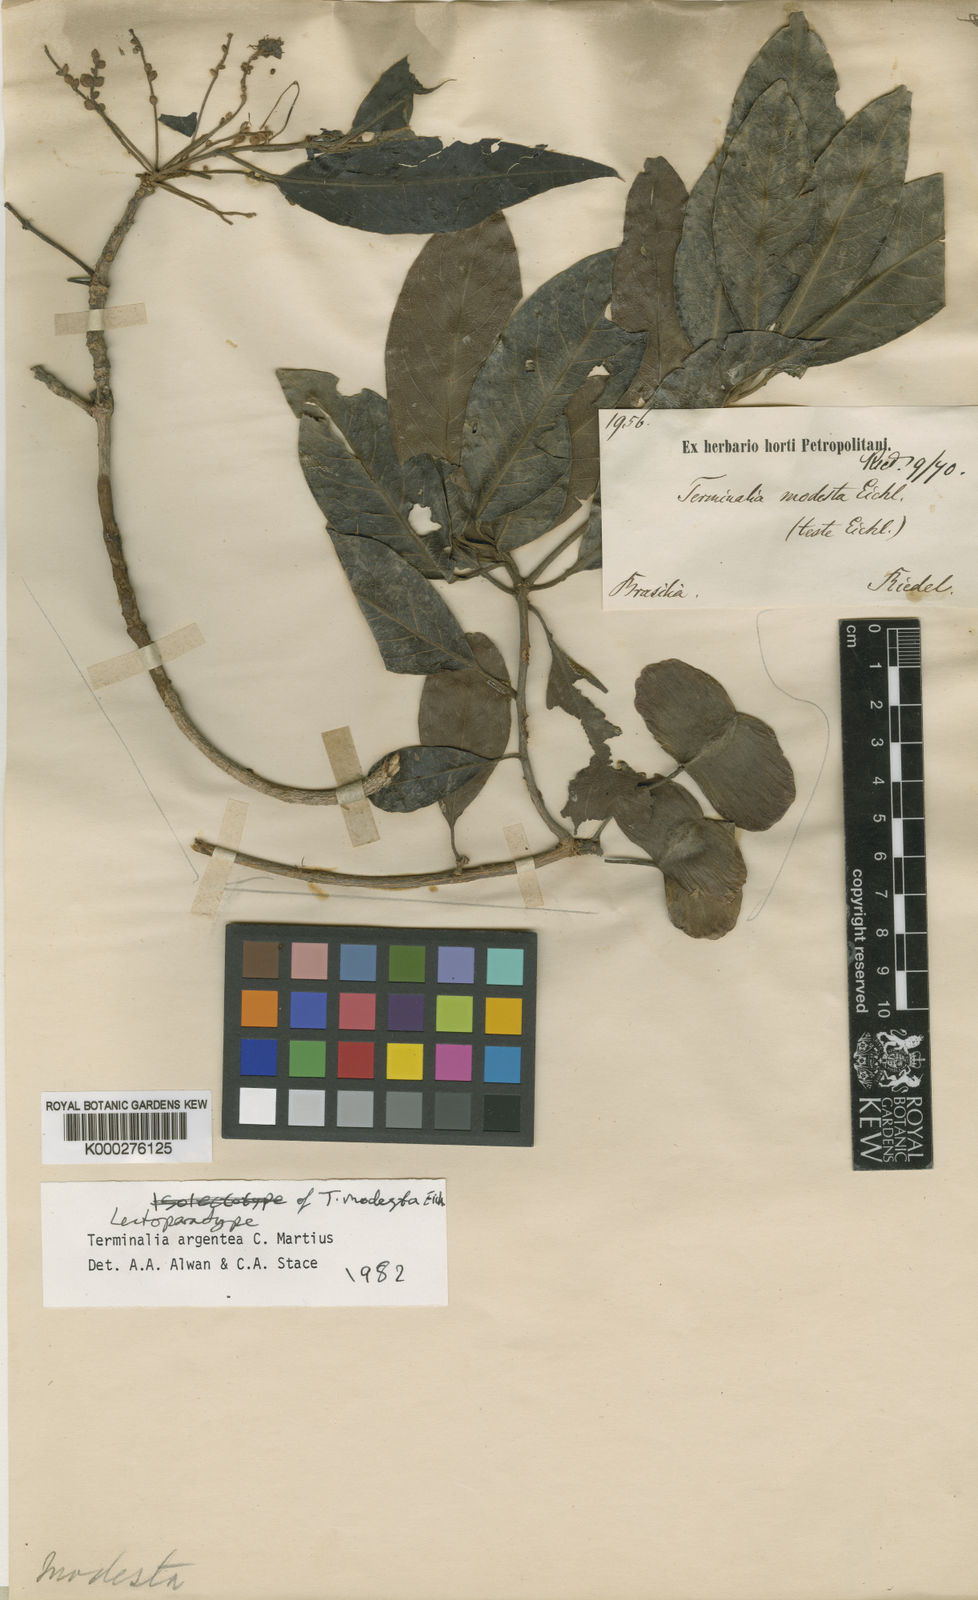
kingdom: Plantae
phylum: Tracheophyta
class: Magnoliopsida
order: Myrtales
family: Combretaceae
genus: Terminalia
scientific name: Terminalia argentea
